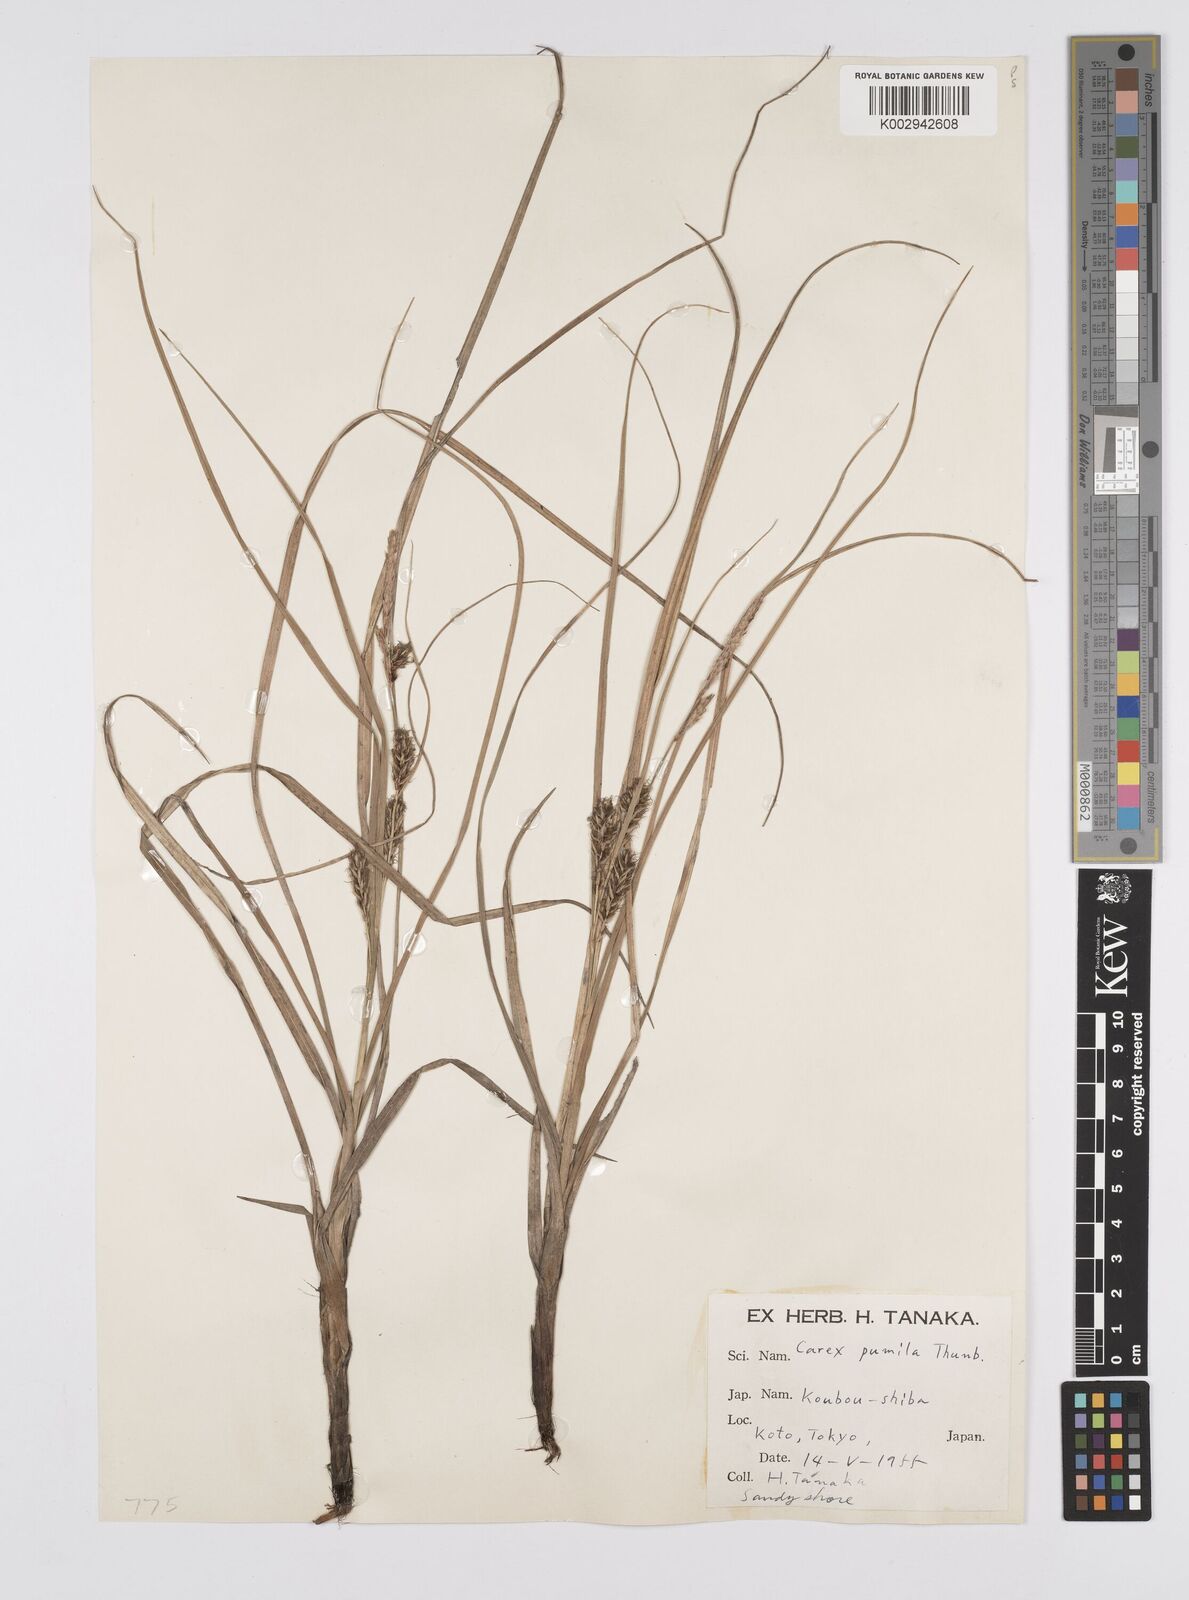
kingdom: Plantae
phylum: Tracheophyta
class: Liliopsida
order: Poales
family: Cyperaceae
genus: Carex
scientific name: Carex pumila
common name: Dwarf sedge
